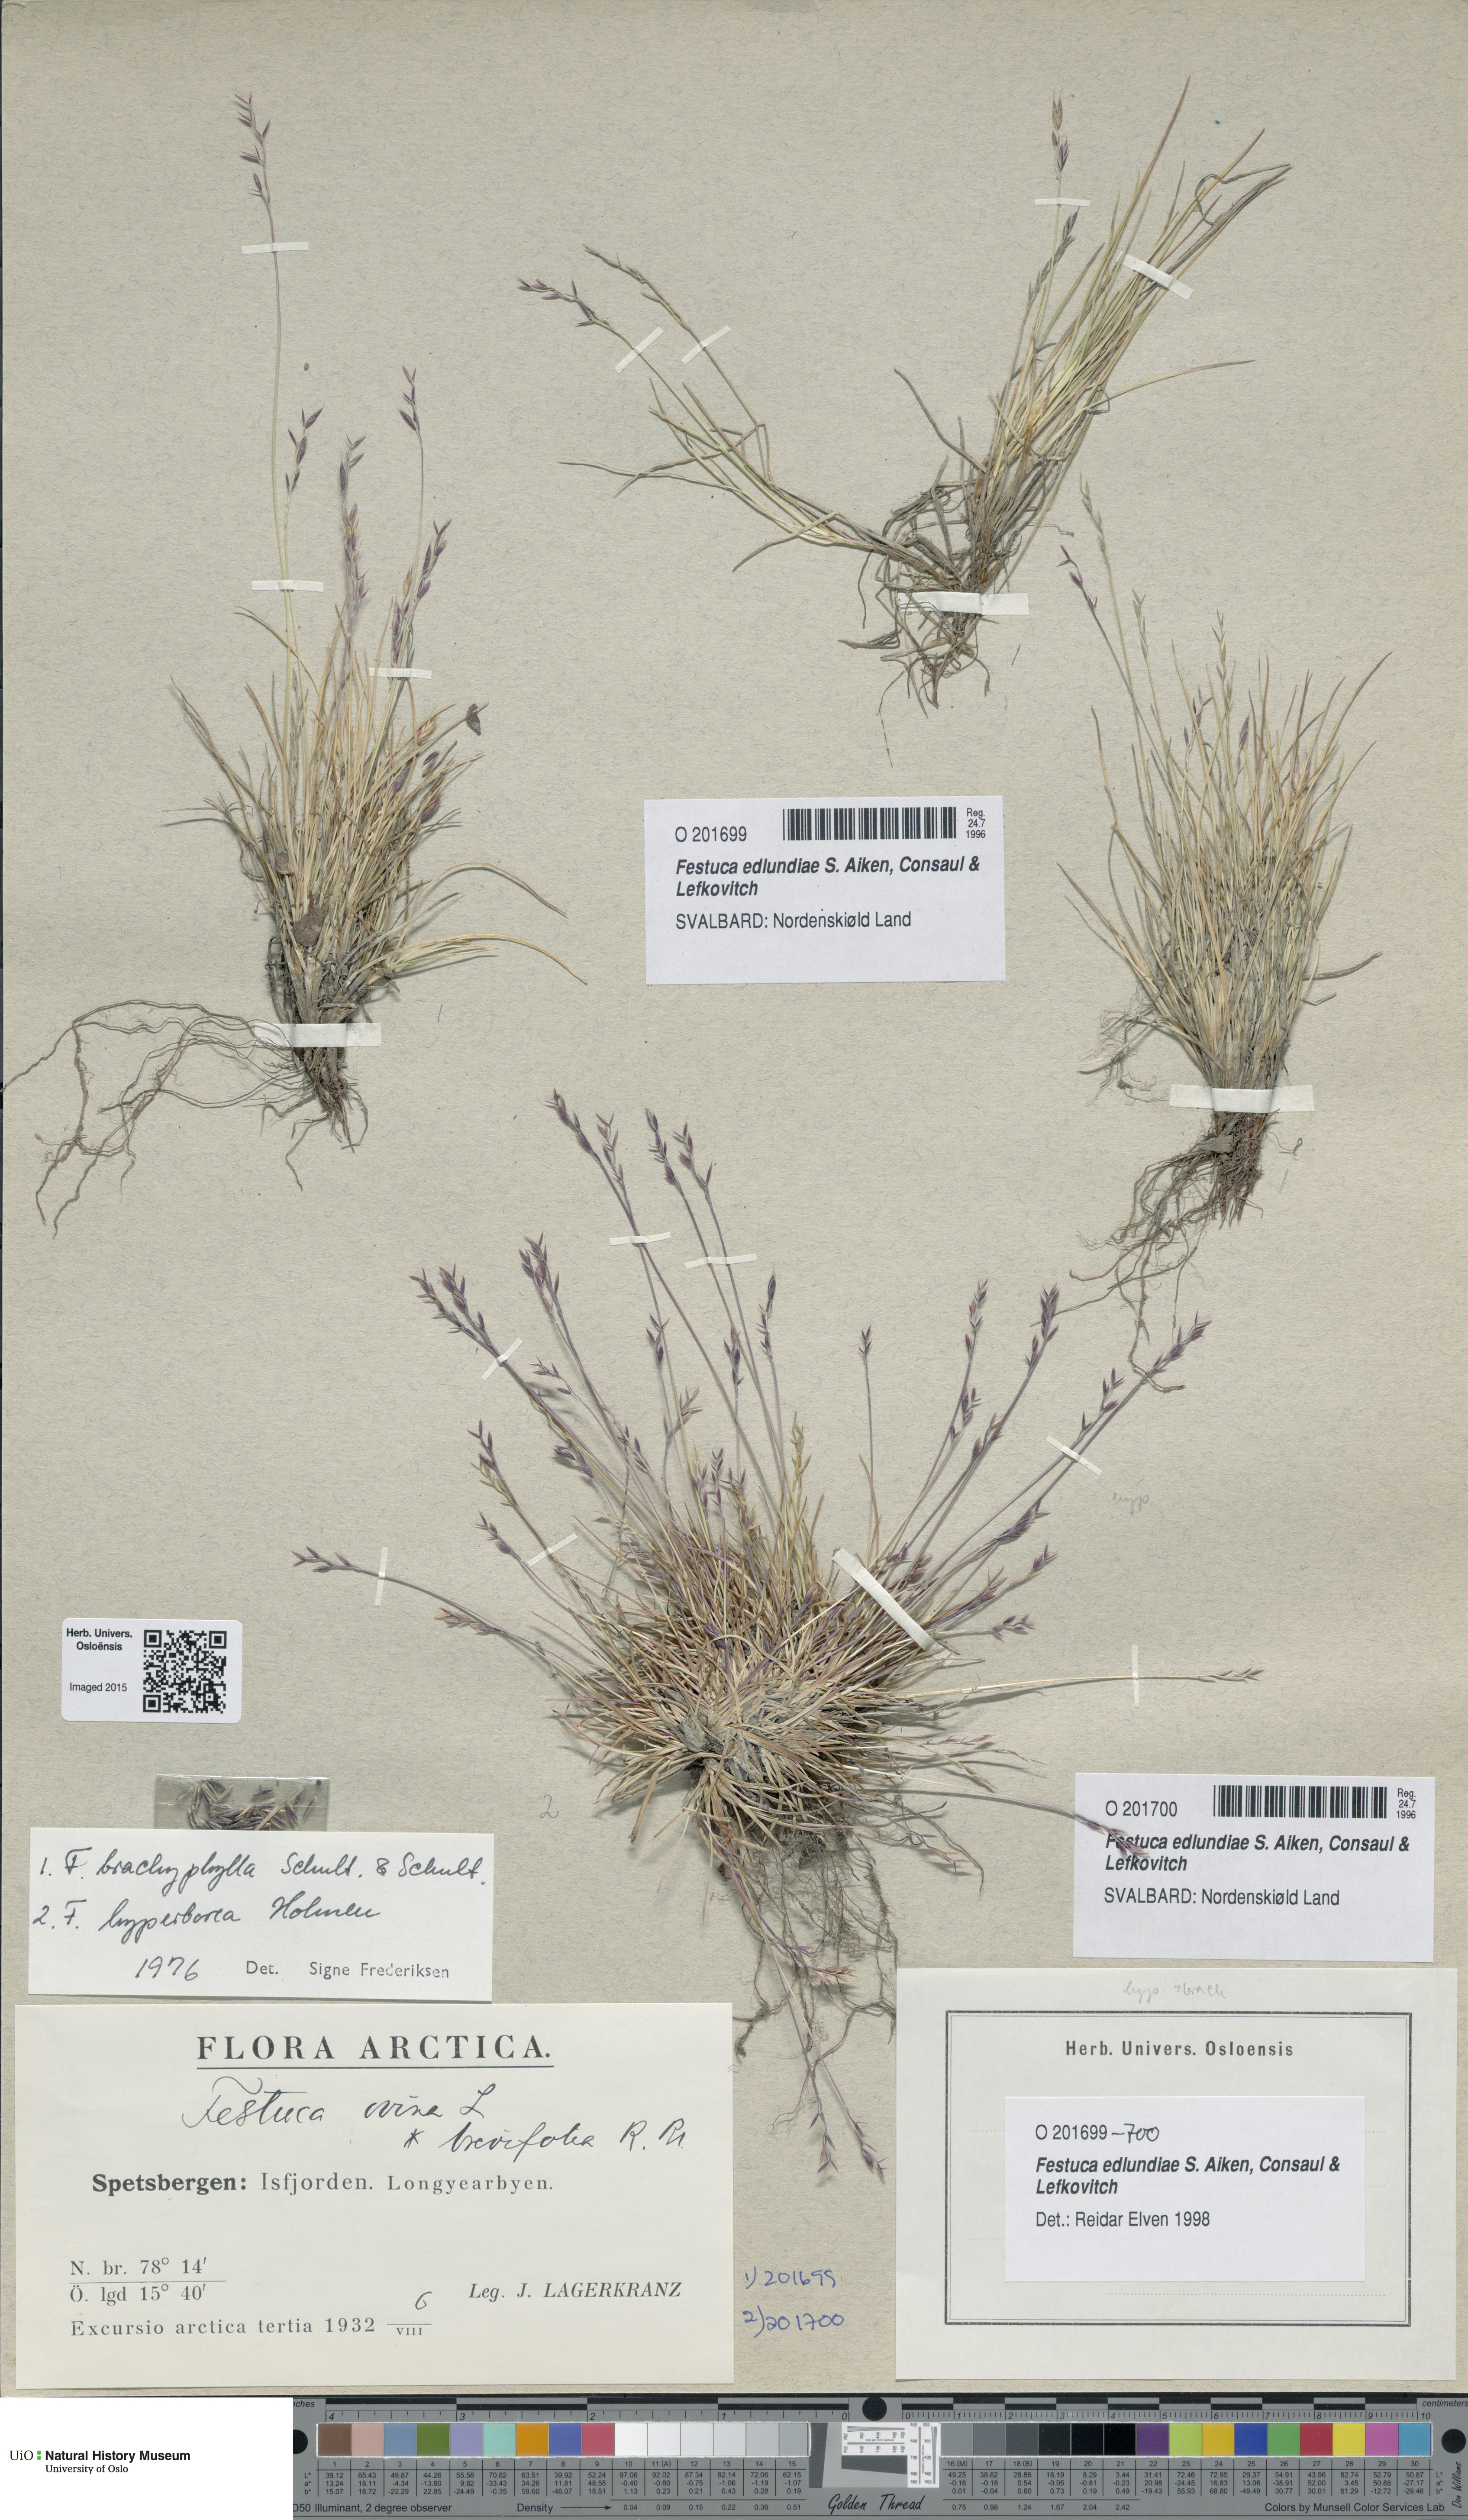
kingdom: Plantae
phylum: Tracheophyta
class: Liliopsida
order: Poales
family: Poaceae
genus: Festuca
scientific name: Festuca edlundiae
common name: Edlund's fescue
